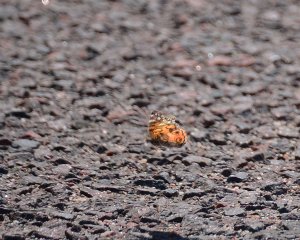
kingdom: Animalia
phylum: Arthropoda
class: Insecta
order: Lepidoptera
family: Nymphalidae
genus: Vanessa
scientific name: Vanessa virginiensis
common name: American Lady
